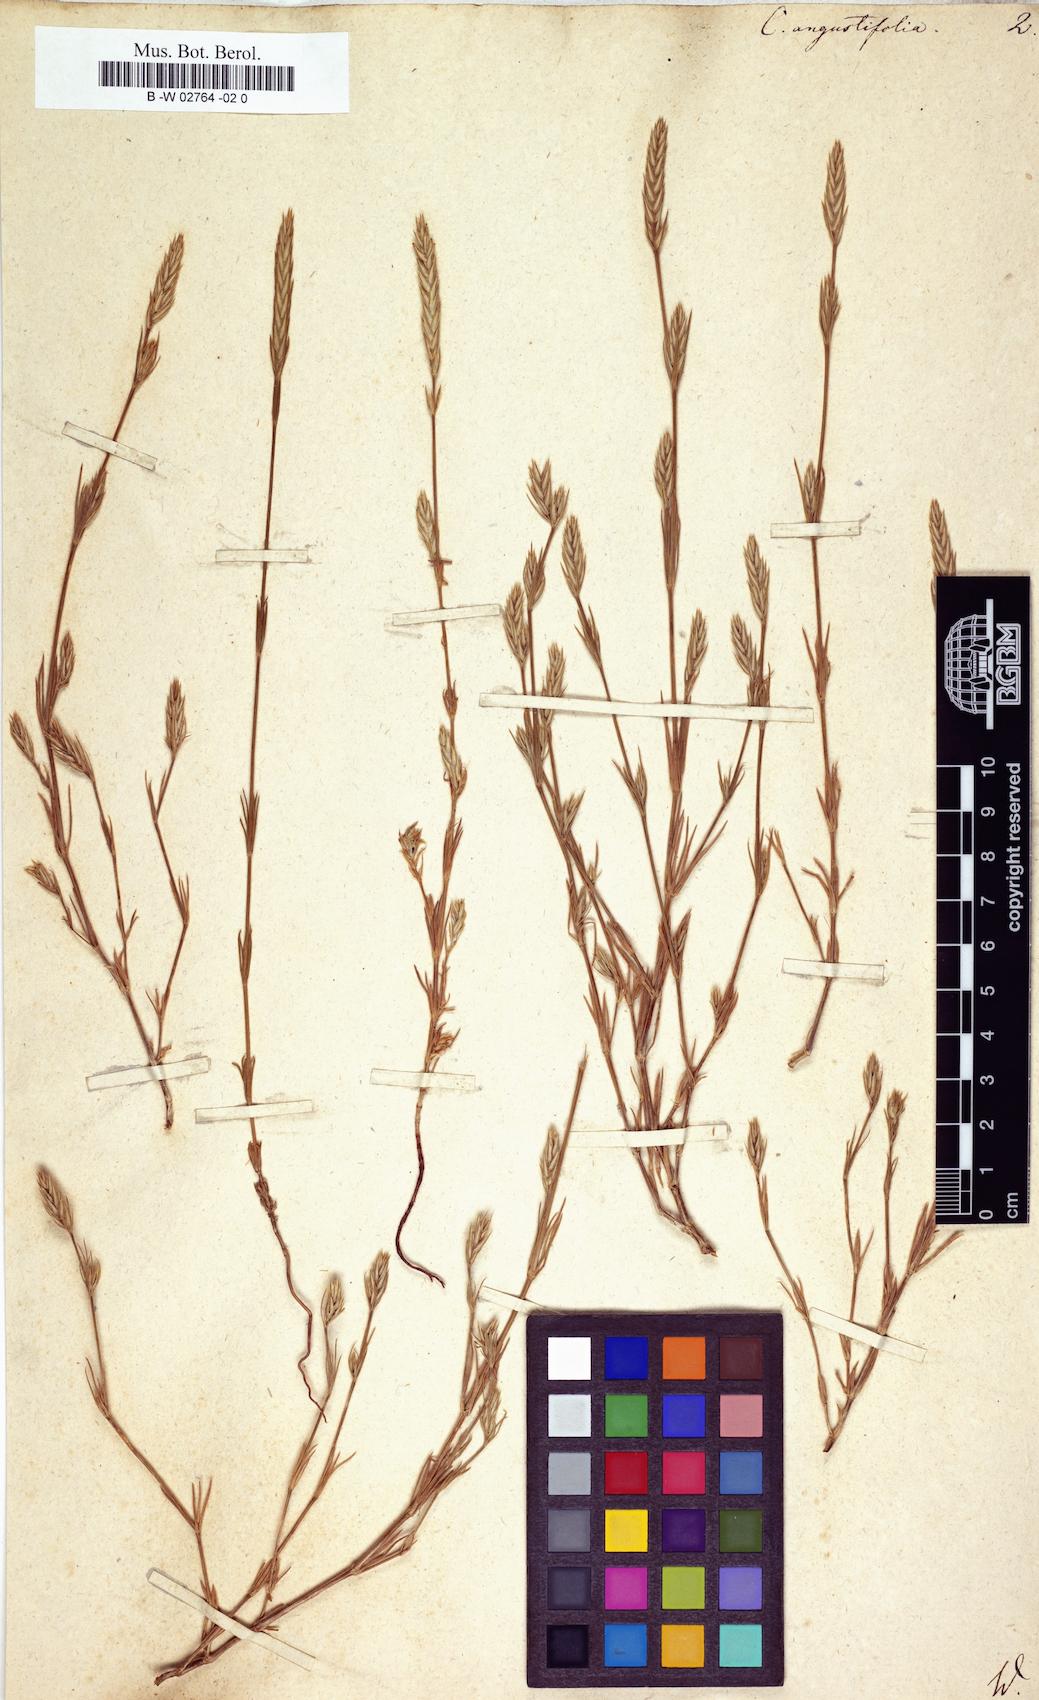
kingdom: Plantae
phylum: Tracheophyta
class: Magnoliopsida
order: Gentianales
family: Rubiaceae
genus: Crucianella
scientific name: Crucianella angustifolia
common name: Narrowleaf crucianella
